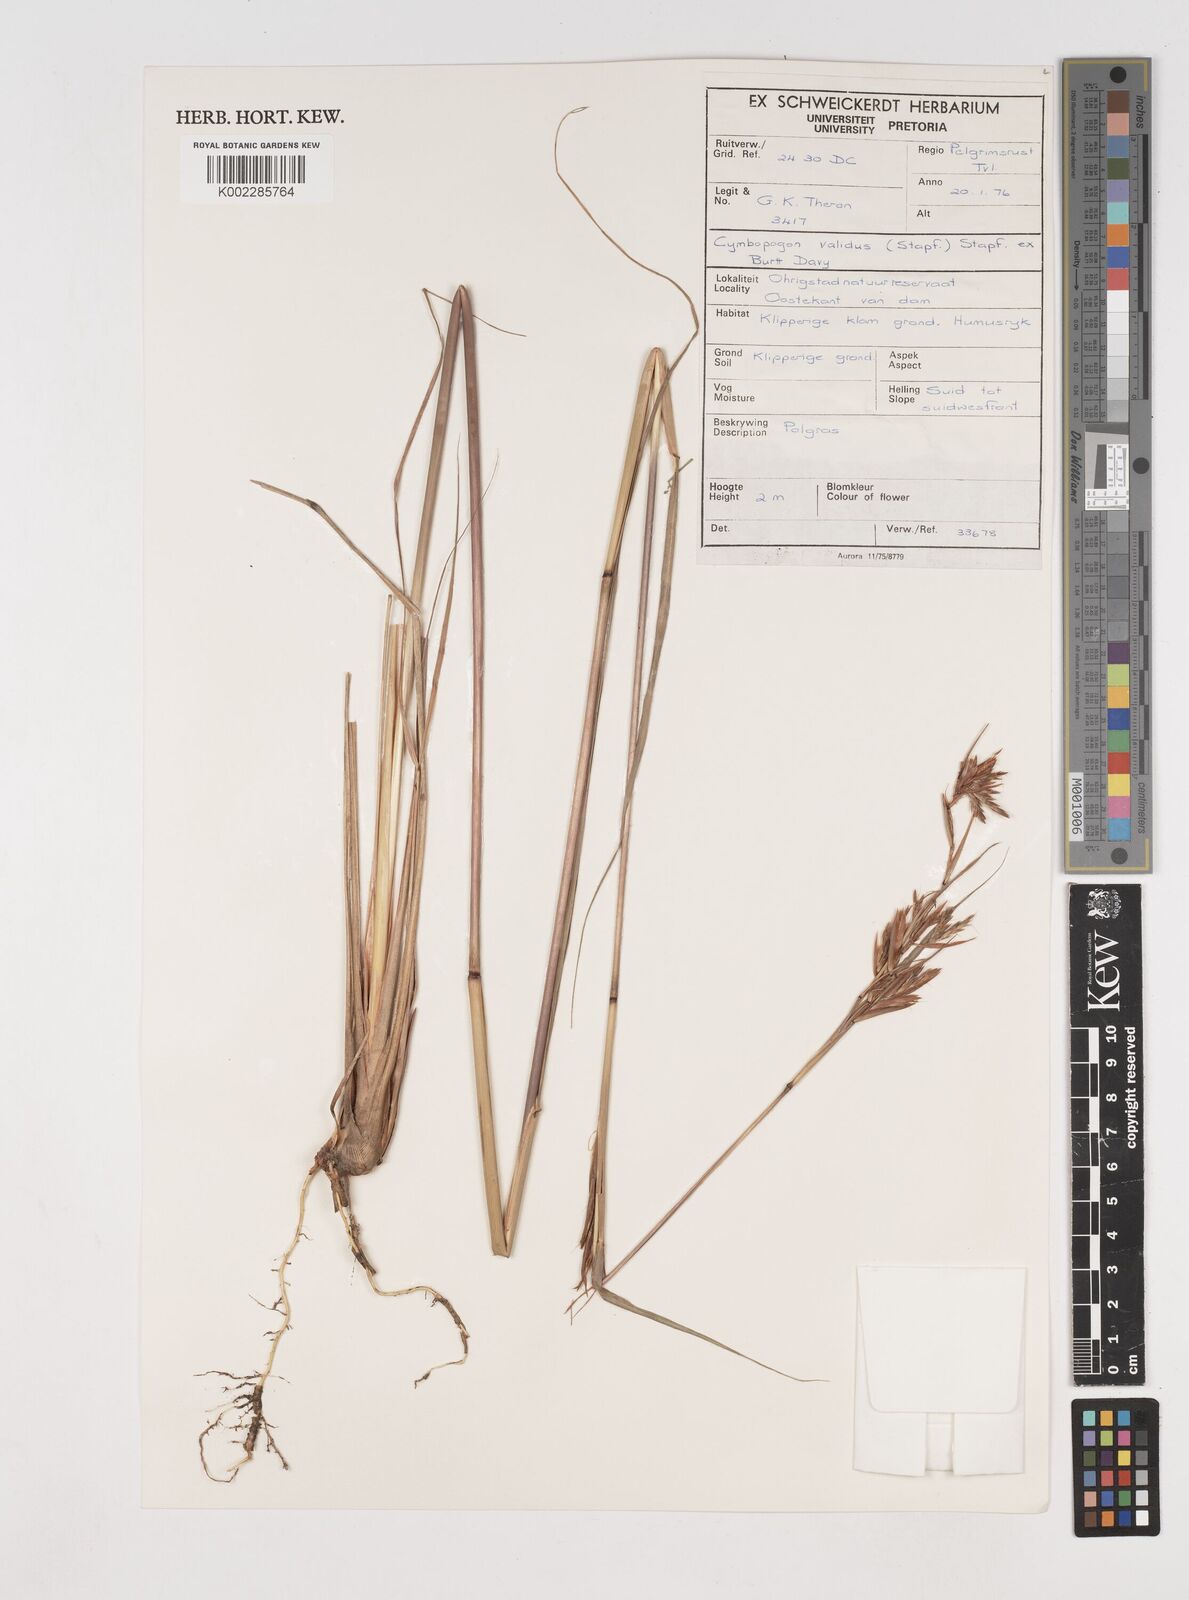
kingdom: Plantae
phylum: Tracheophyta
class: Liliopsida
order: Poales
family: Poaceae
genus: Cymbopogon
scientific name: Cymbopogon nardus
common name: Giant turpentine grass
